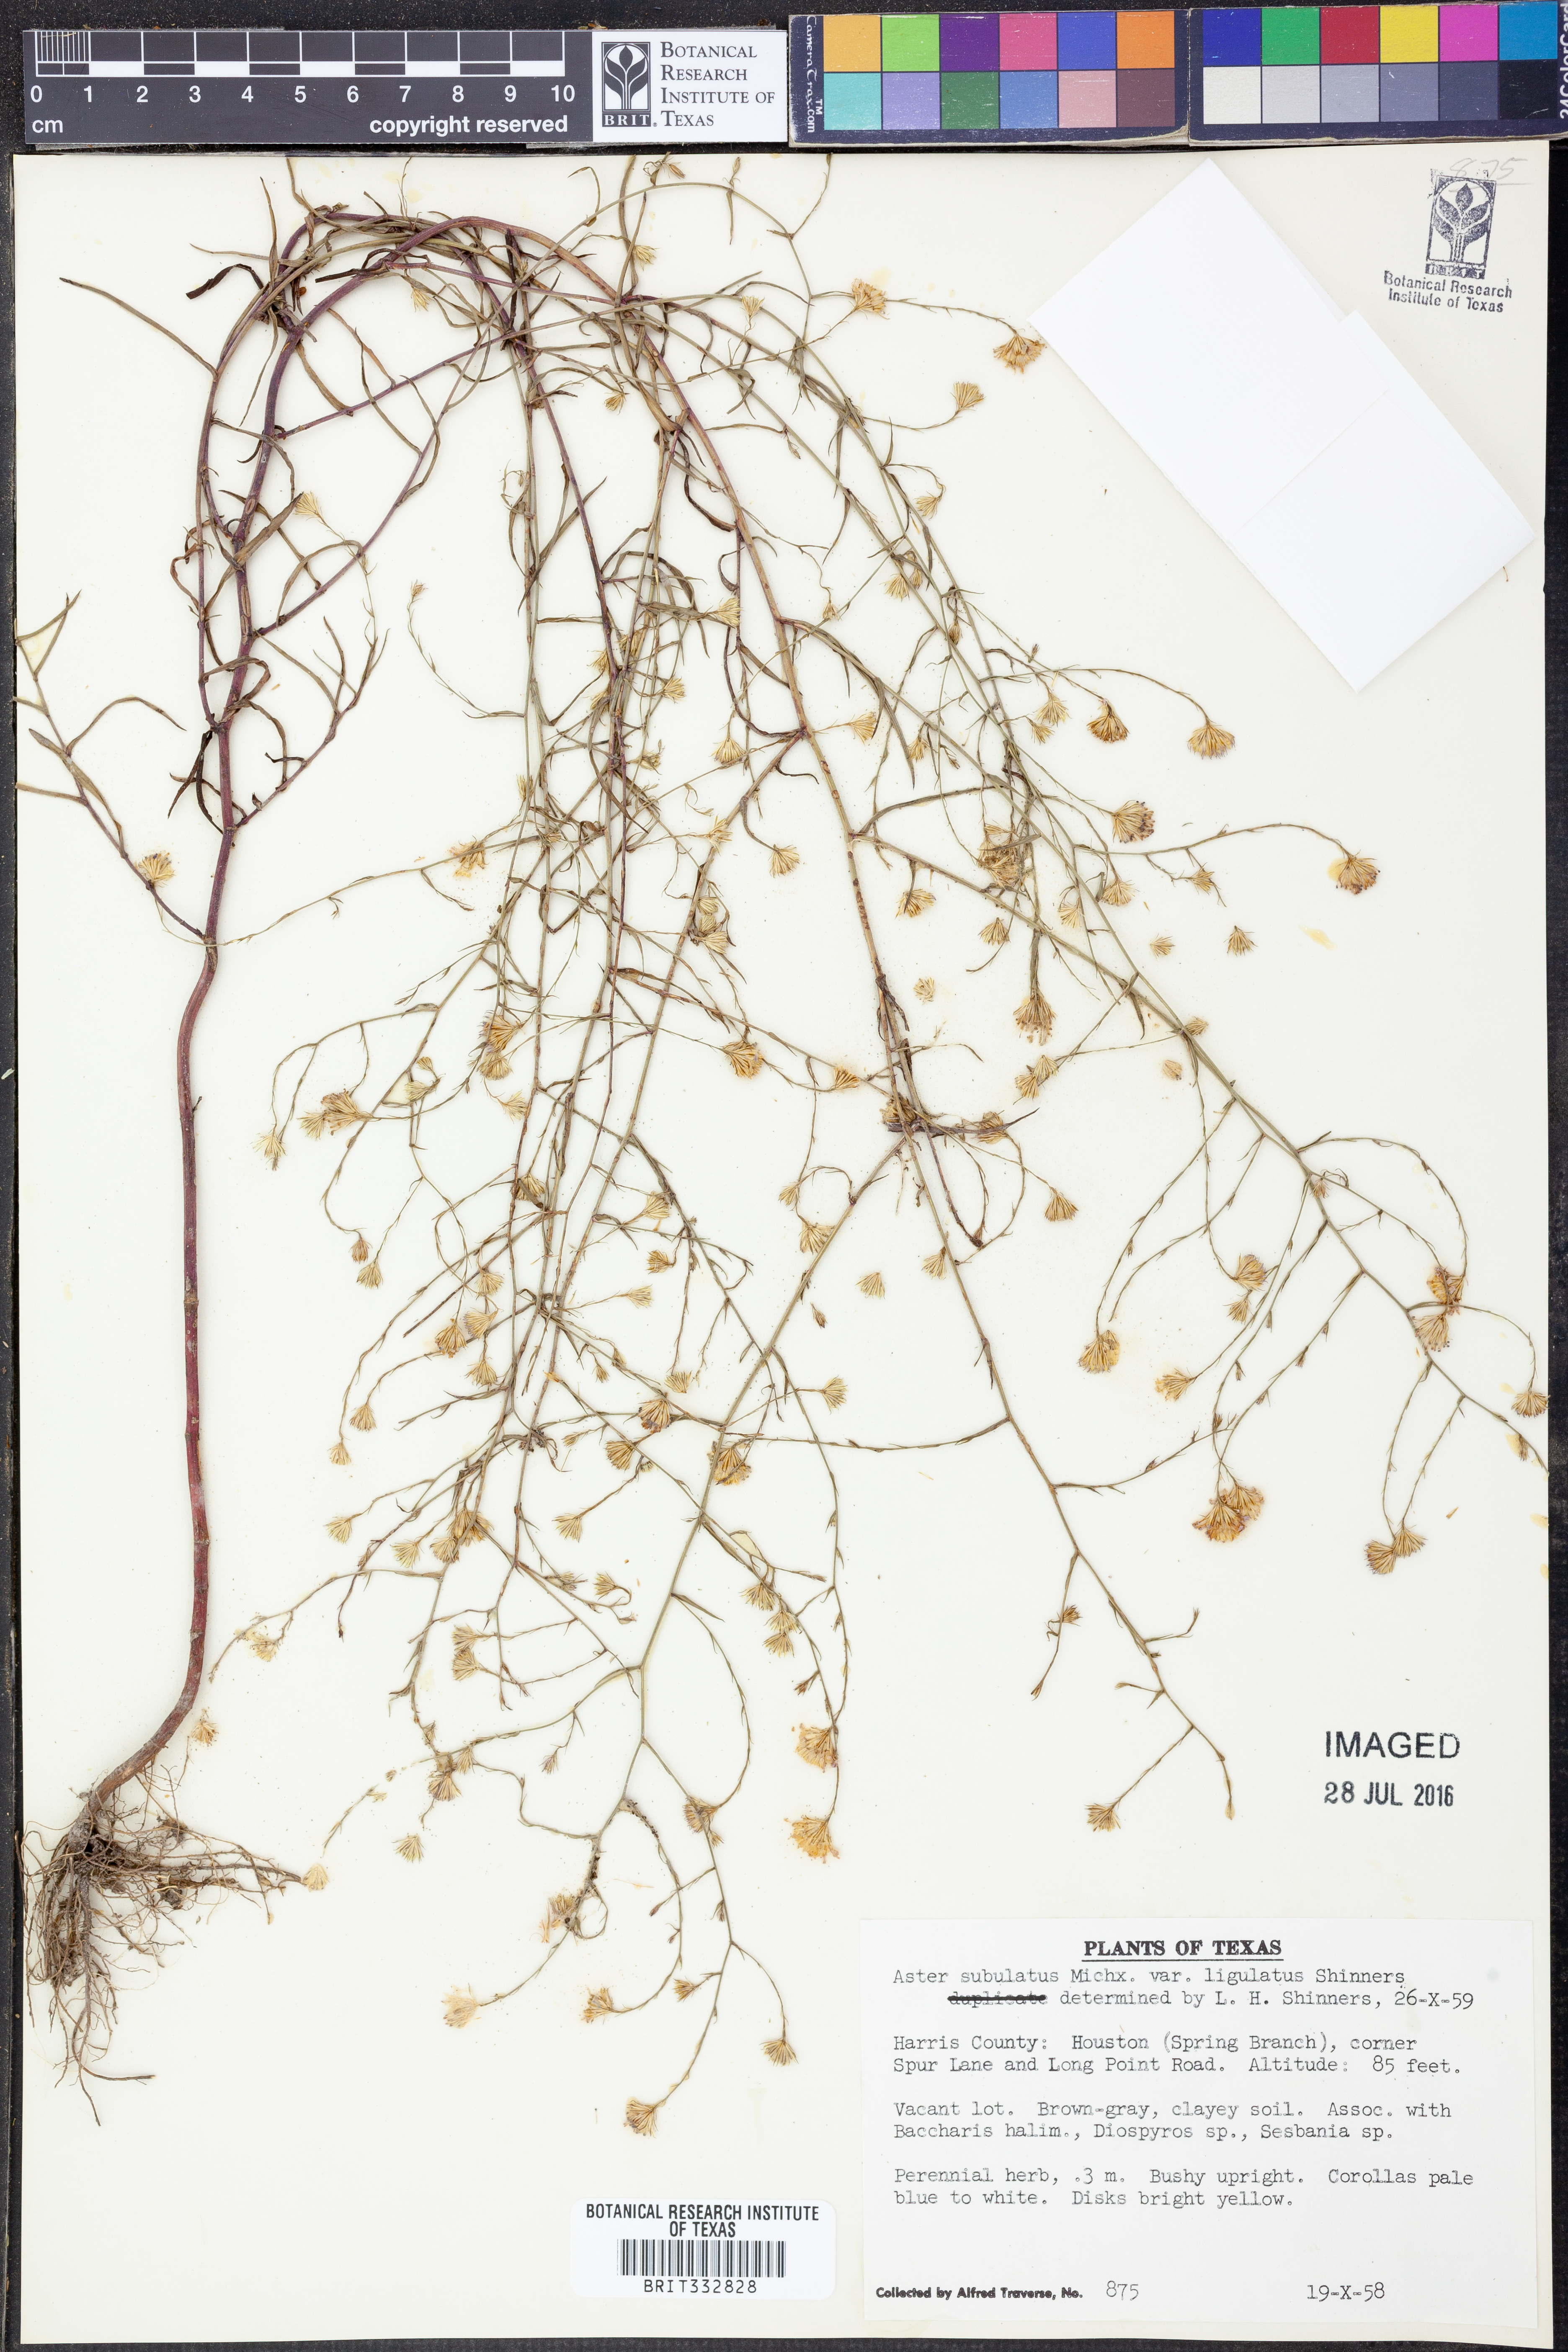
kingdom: Plantae
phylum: Tracheophyta
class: Magnoliopsida
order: Asterales
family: Asteraceae
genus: Symphyotrichum
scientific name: Symphyotrichum divaricatum
